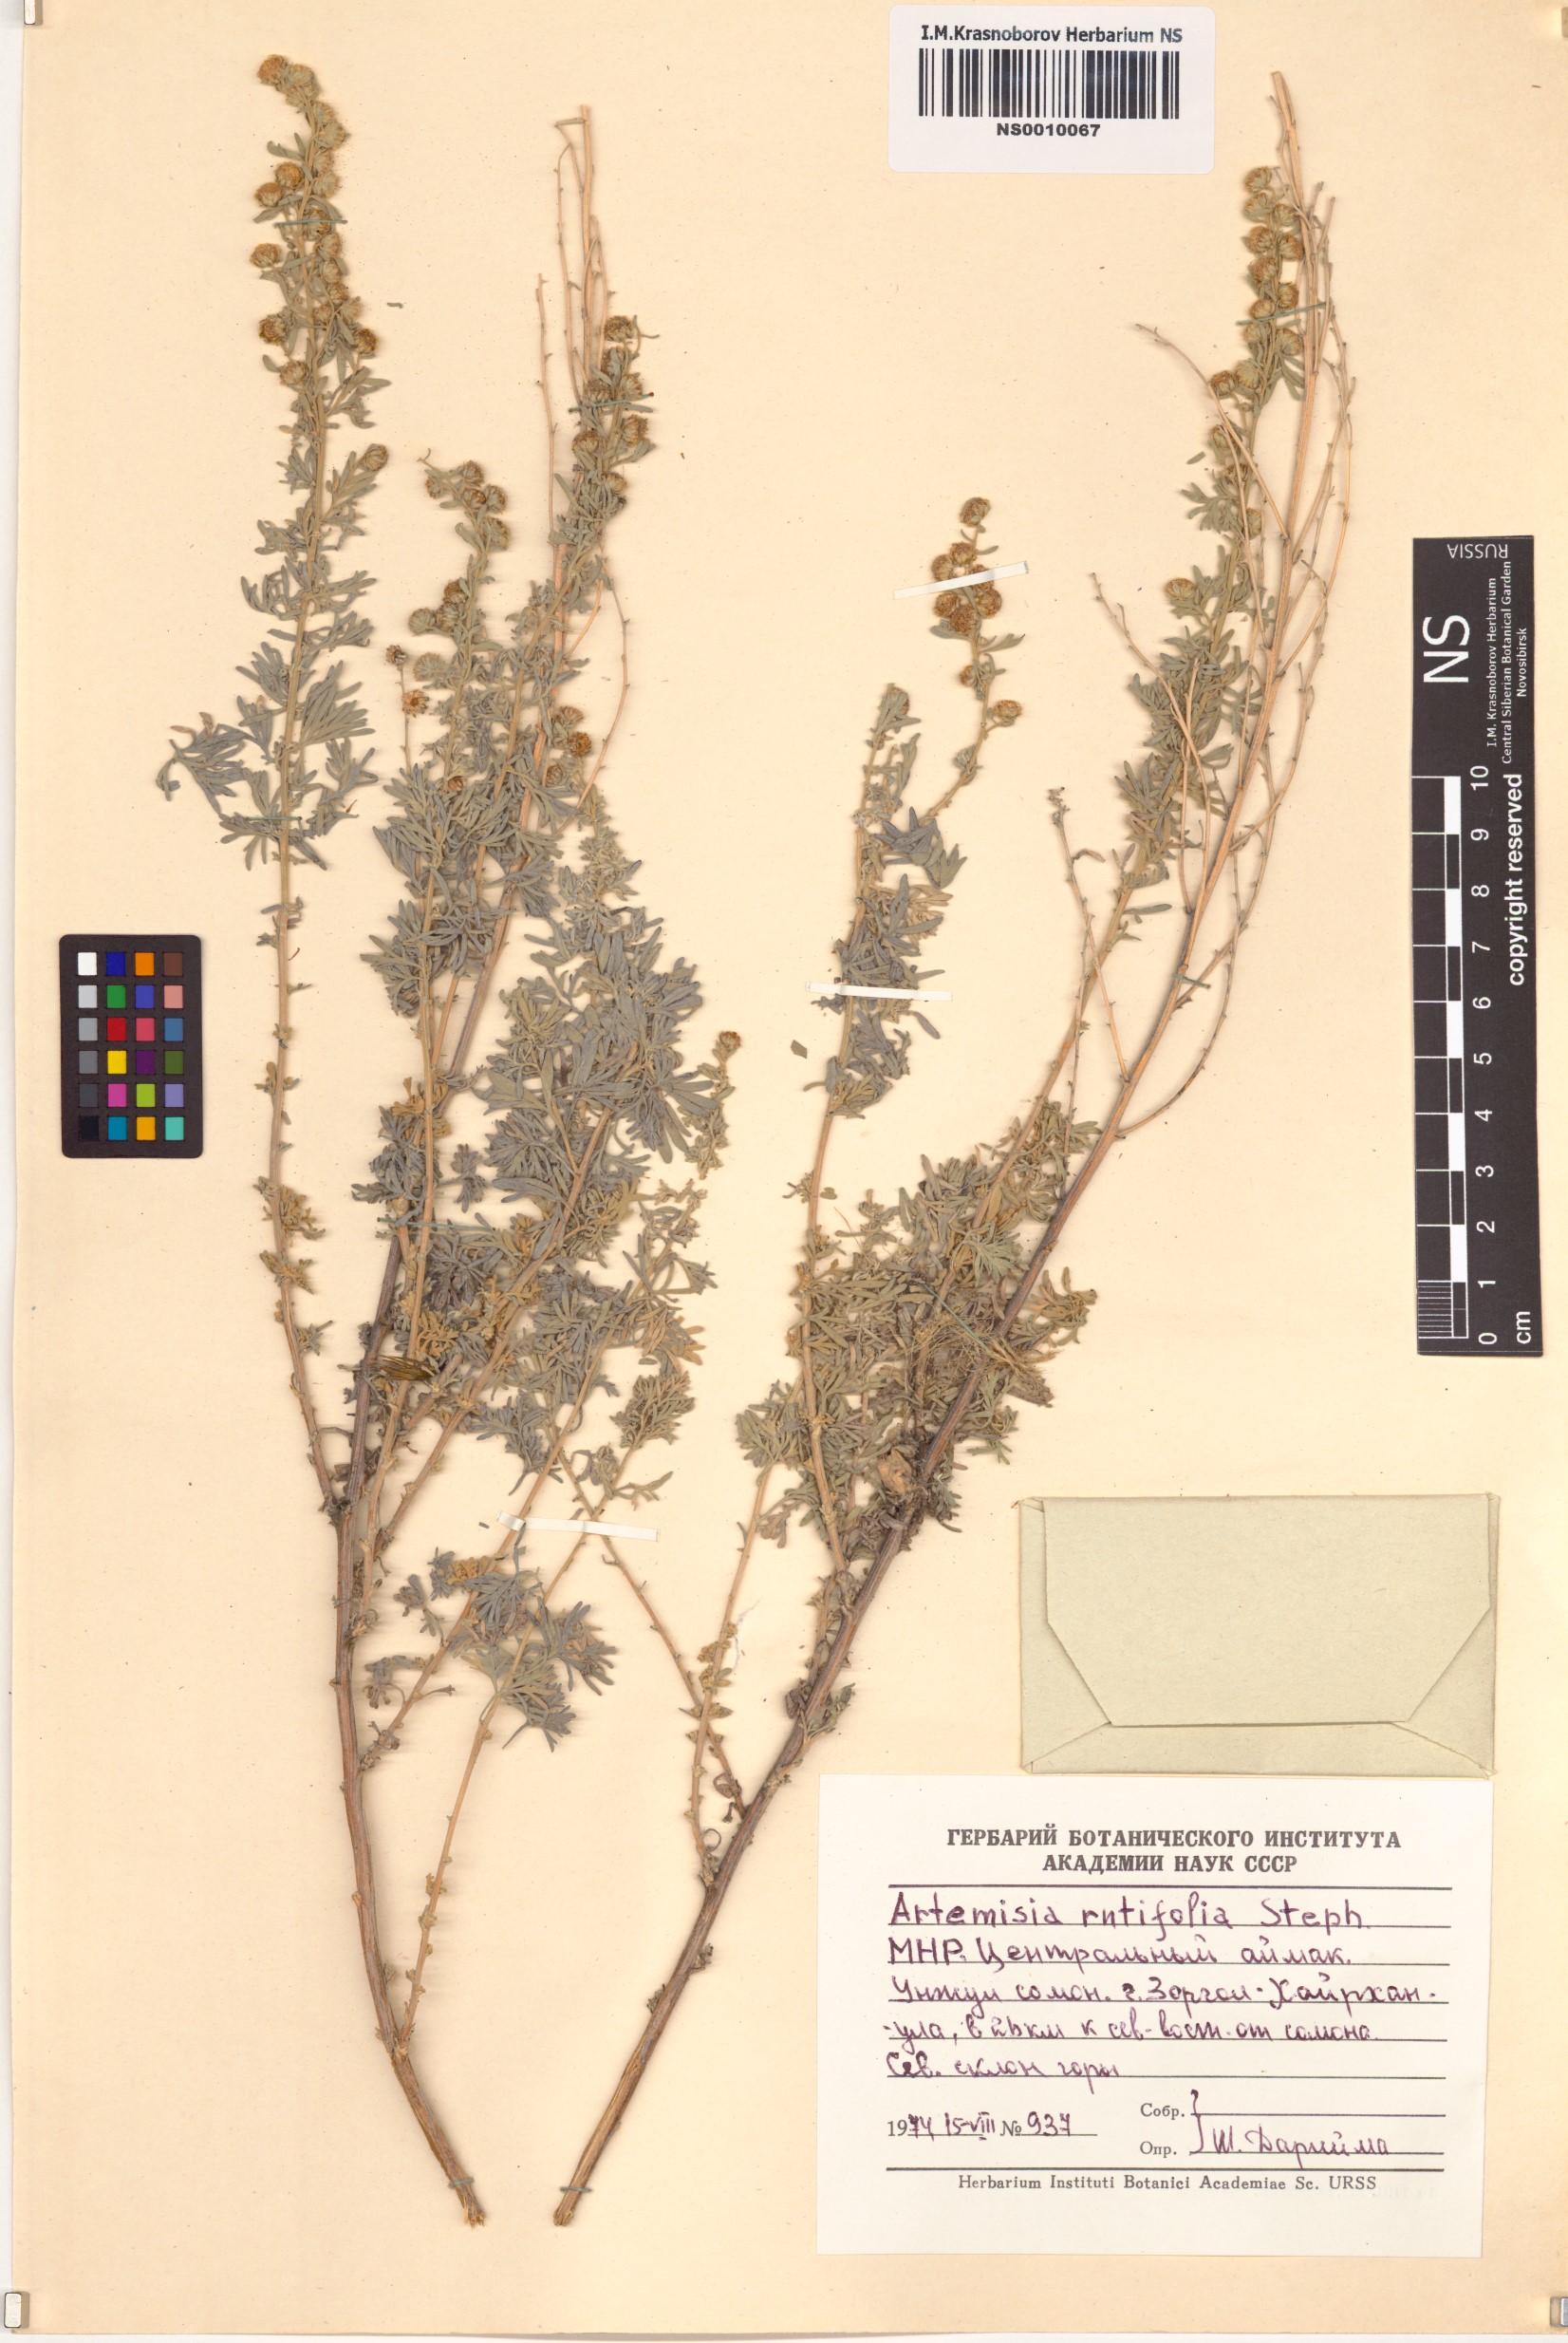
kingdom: Plantae
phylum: Tracheophyta
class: Magnoliopsida
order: Asterales
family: Asteraceae
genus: Artemisia
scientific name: Artemisia rutifolia
